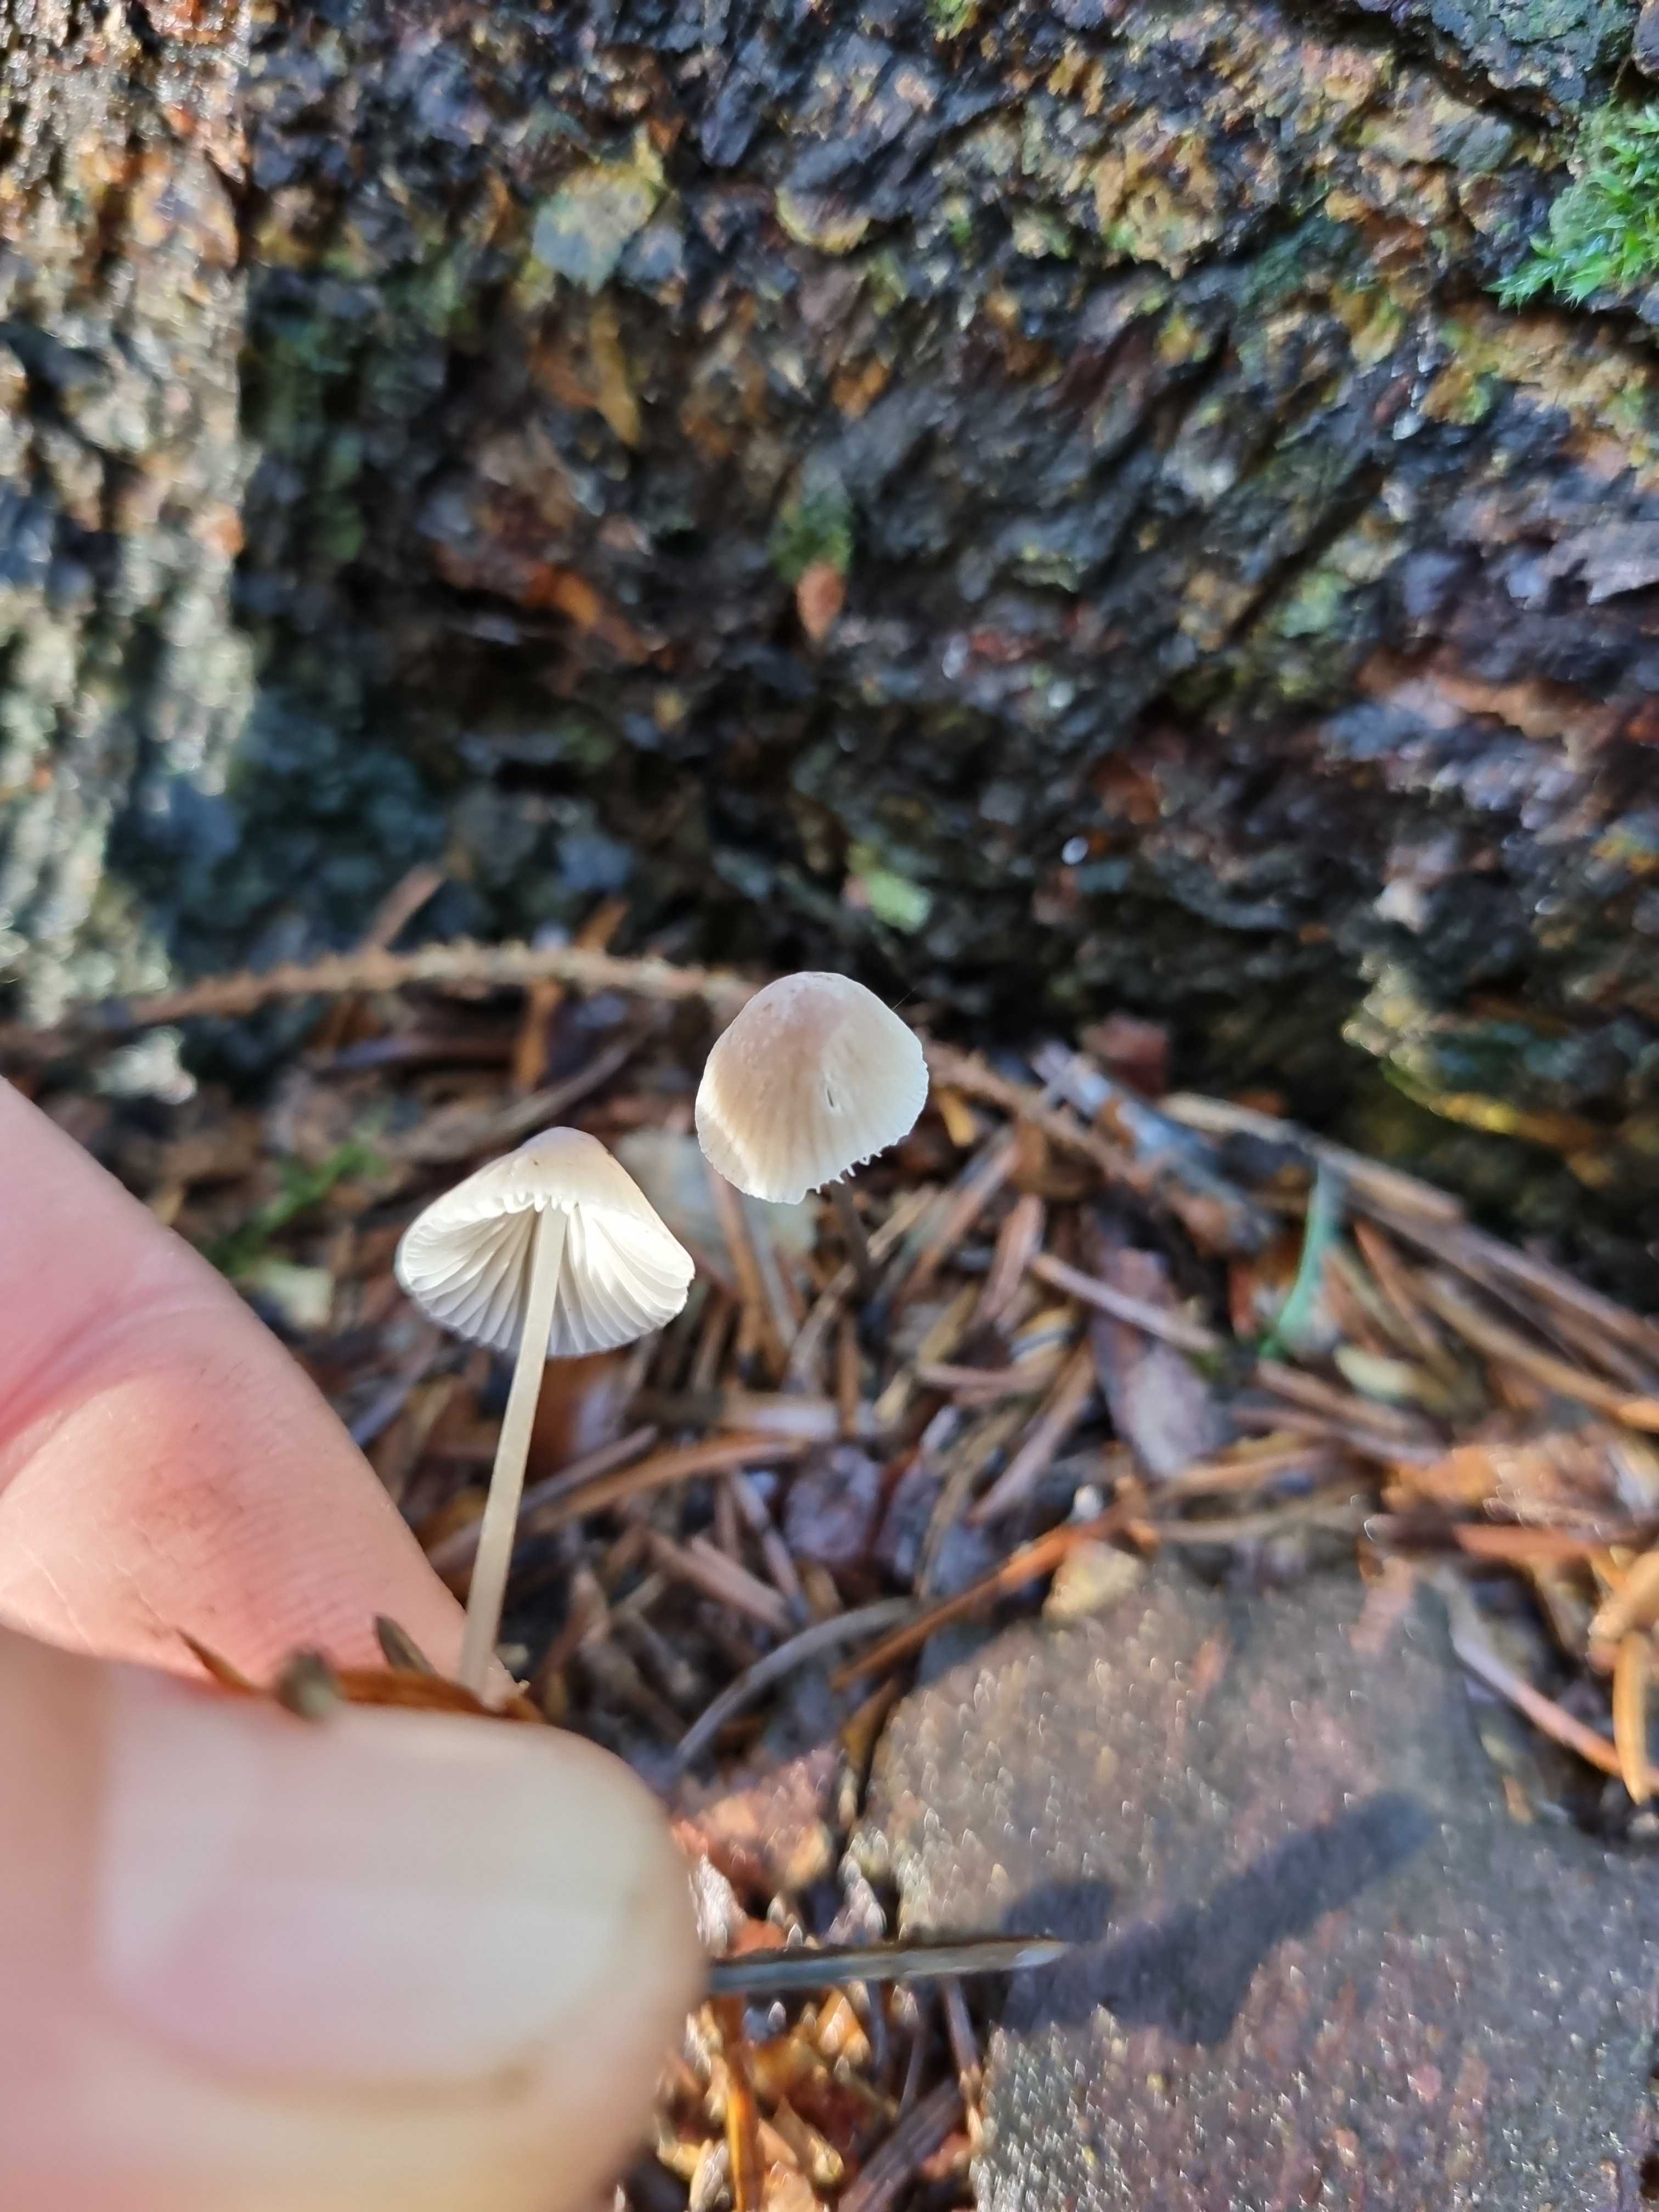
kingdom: Fungi
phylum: Basidiomycota
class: Agaricomycetes
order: Agaricales
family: Mycenaceae
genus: Mycena
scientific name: Mycena
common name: huesvamp
